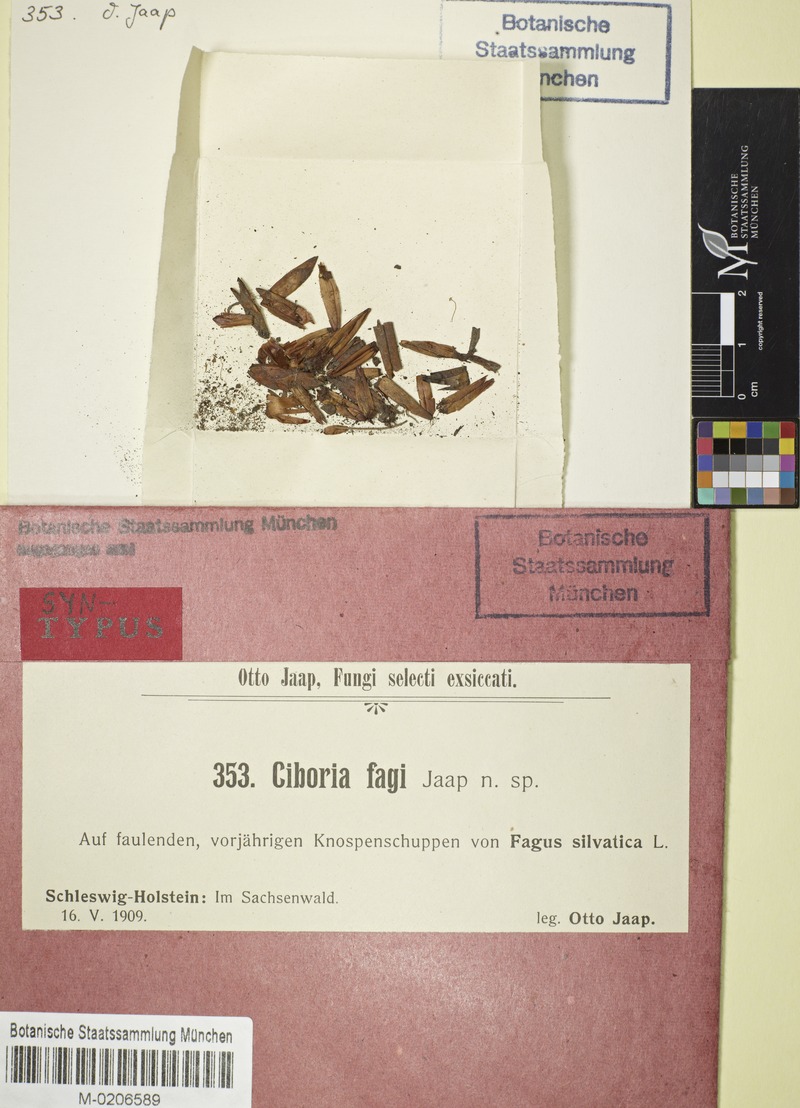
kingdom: Fungi
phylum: Ascomycota
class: Leotiomycetes
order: Helotiales
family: Pezizellaceae
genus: Pezizella
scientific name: Pezizella fagi
